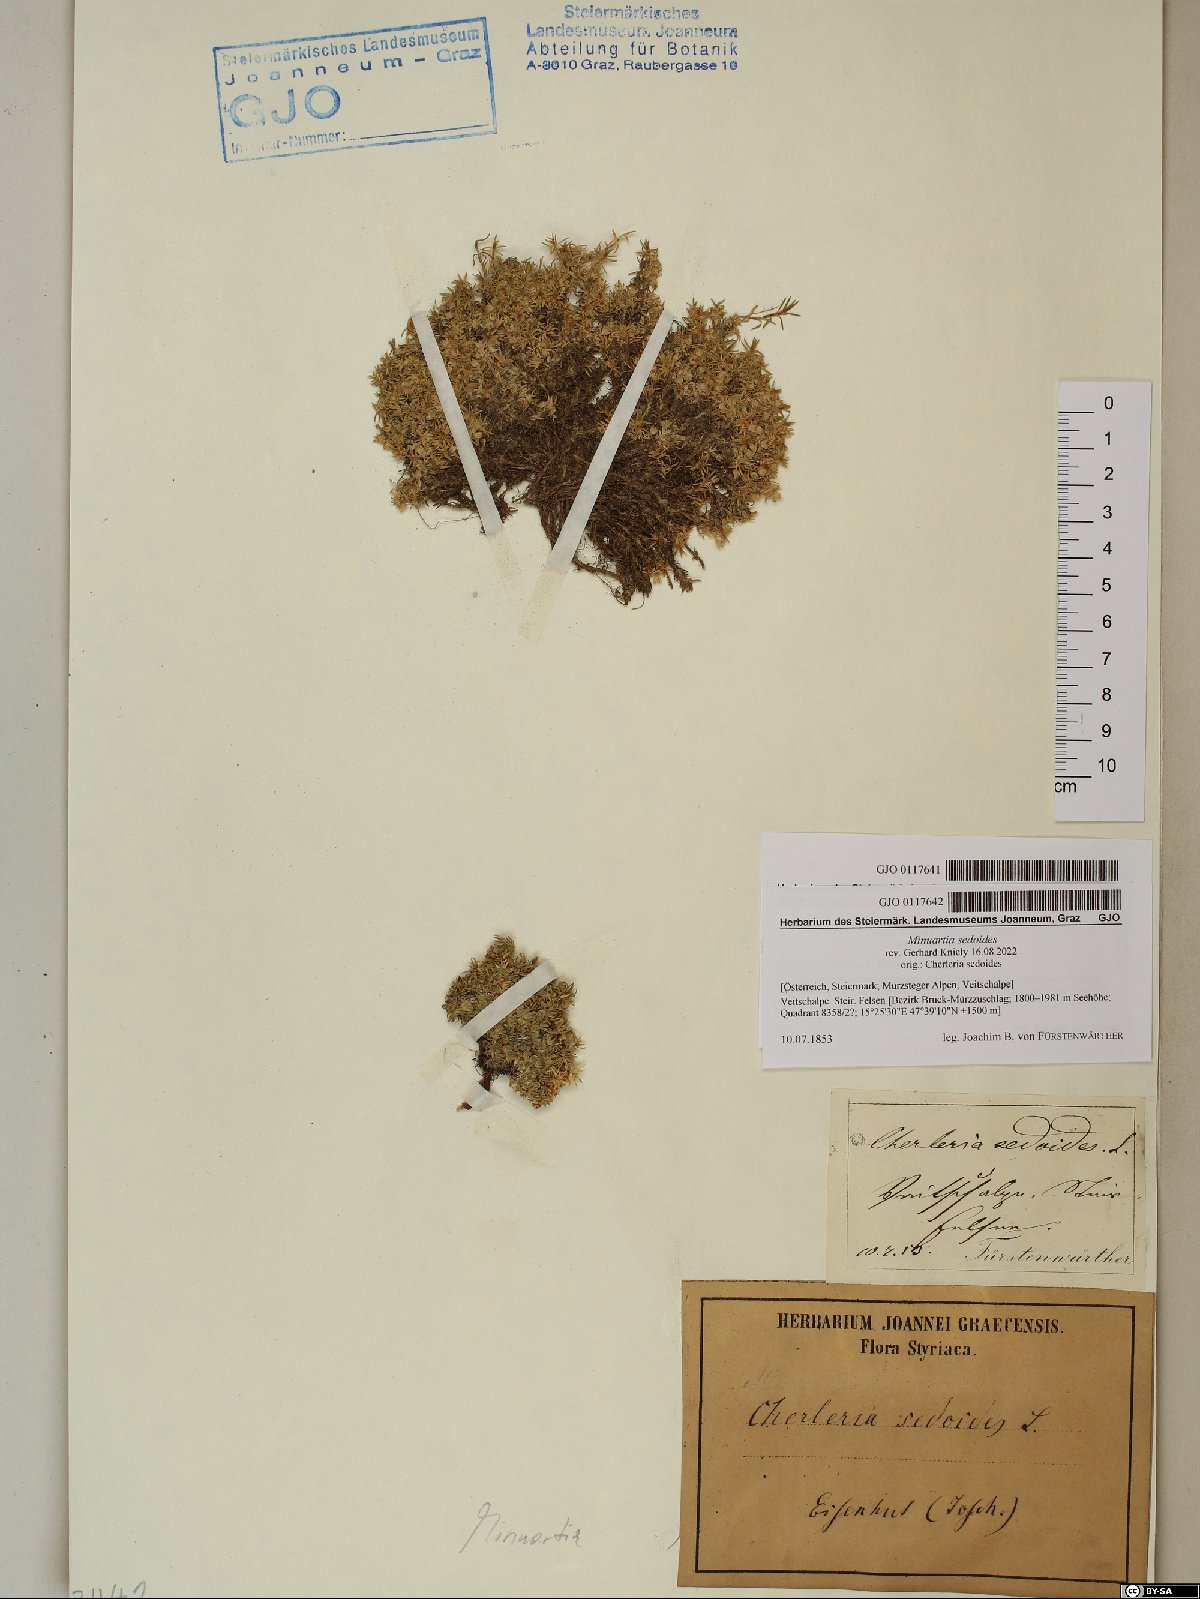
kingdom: Plantae
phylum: Tracheophyta
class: Magnoliopsida
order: Caryophyllales
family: Caryophyllaceae
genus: Cherleria
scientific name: Cherleria sedoides
